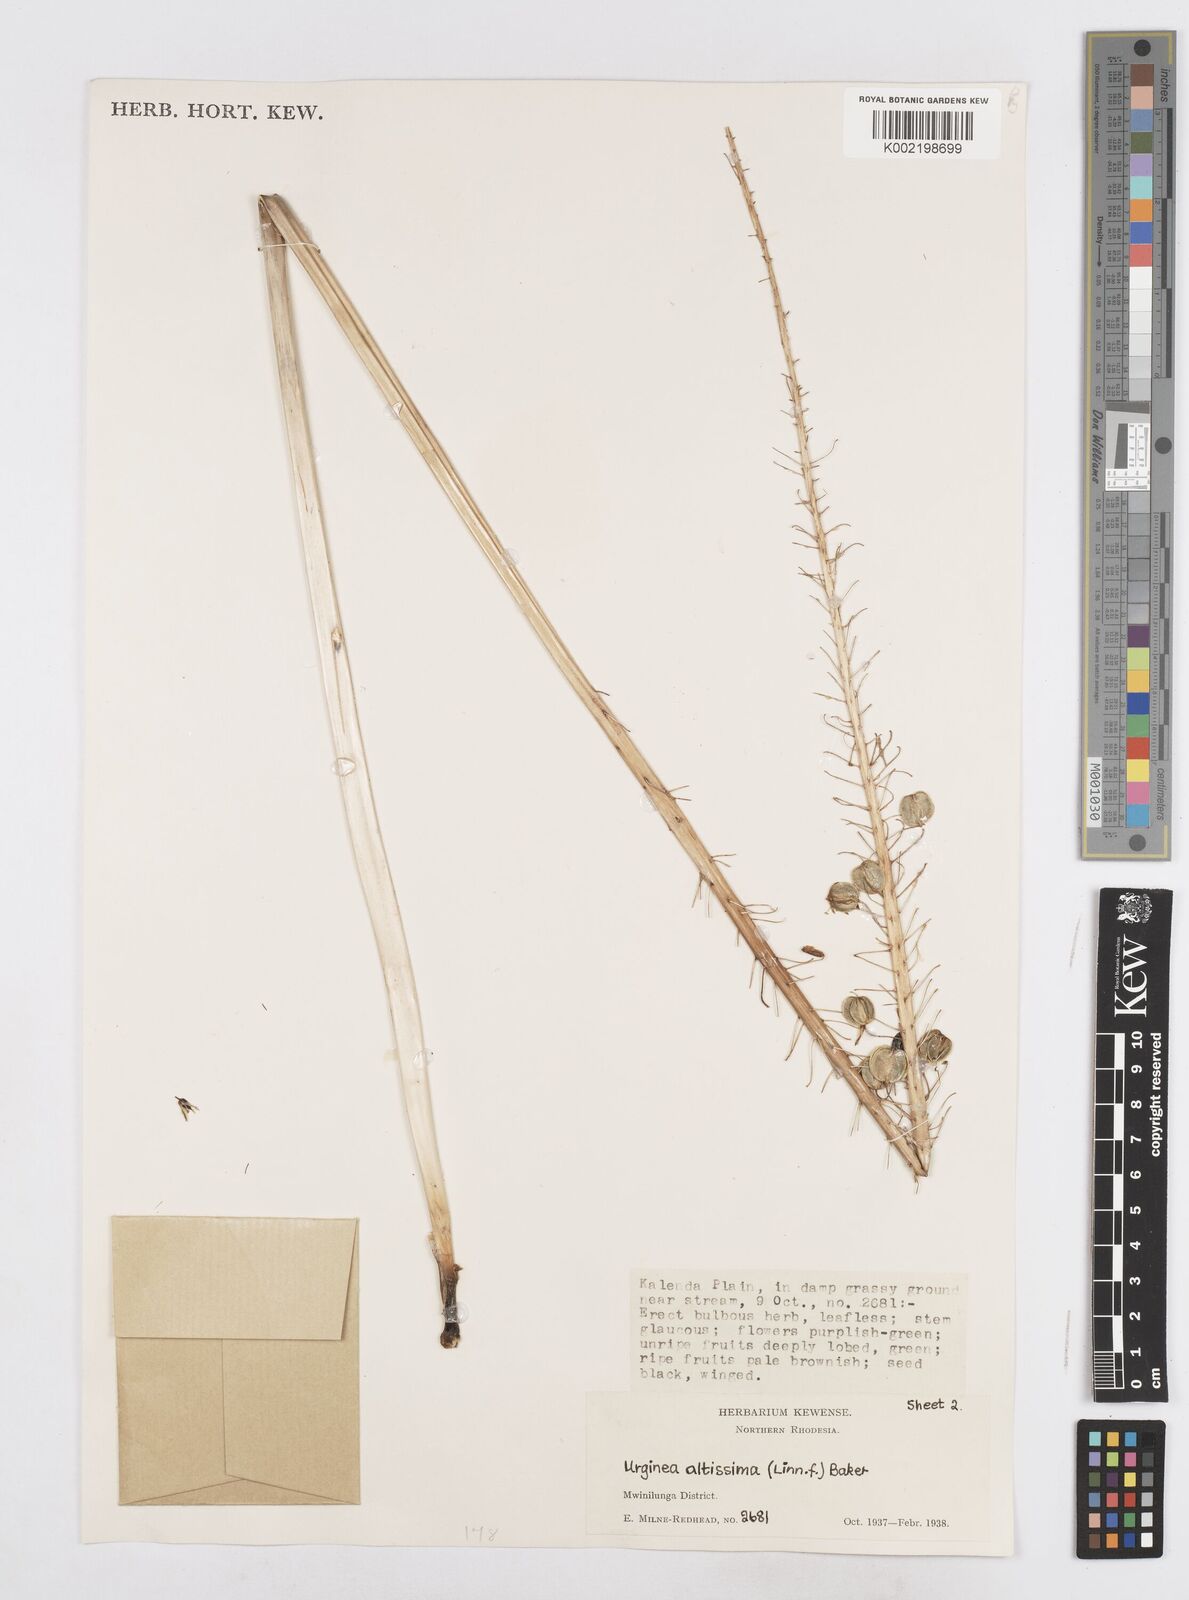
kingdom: Plantae
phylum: Tracheophyta
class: Liliopsida
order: Asparagales
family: Asparagaceae
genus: Drimia
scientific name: Drimia
